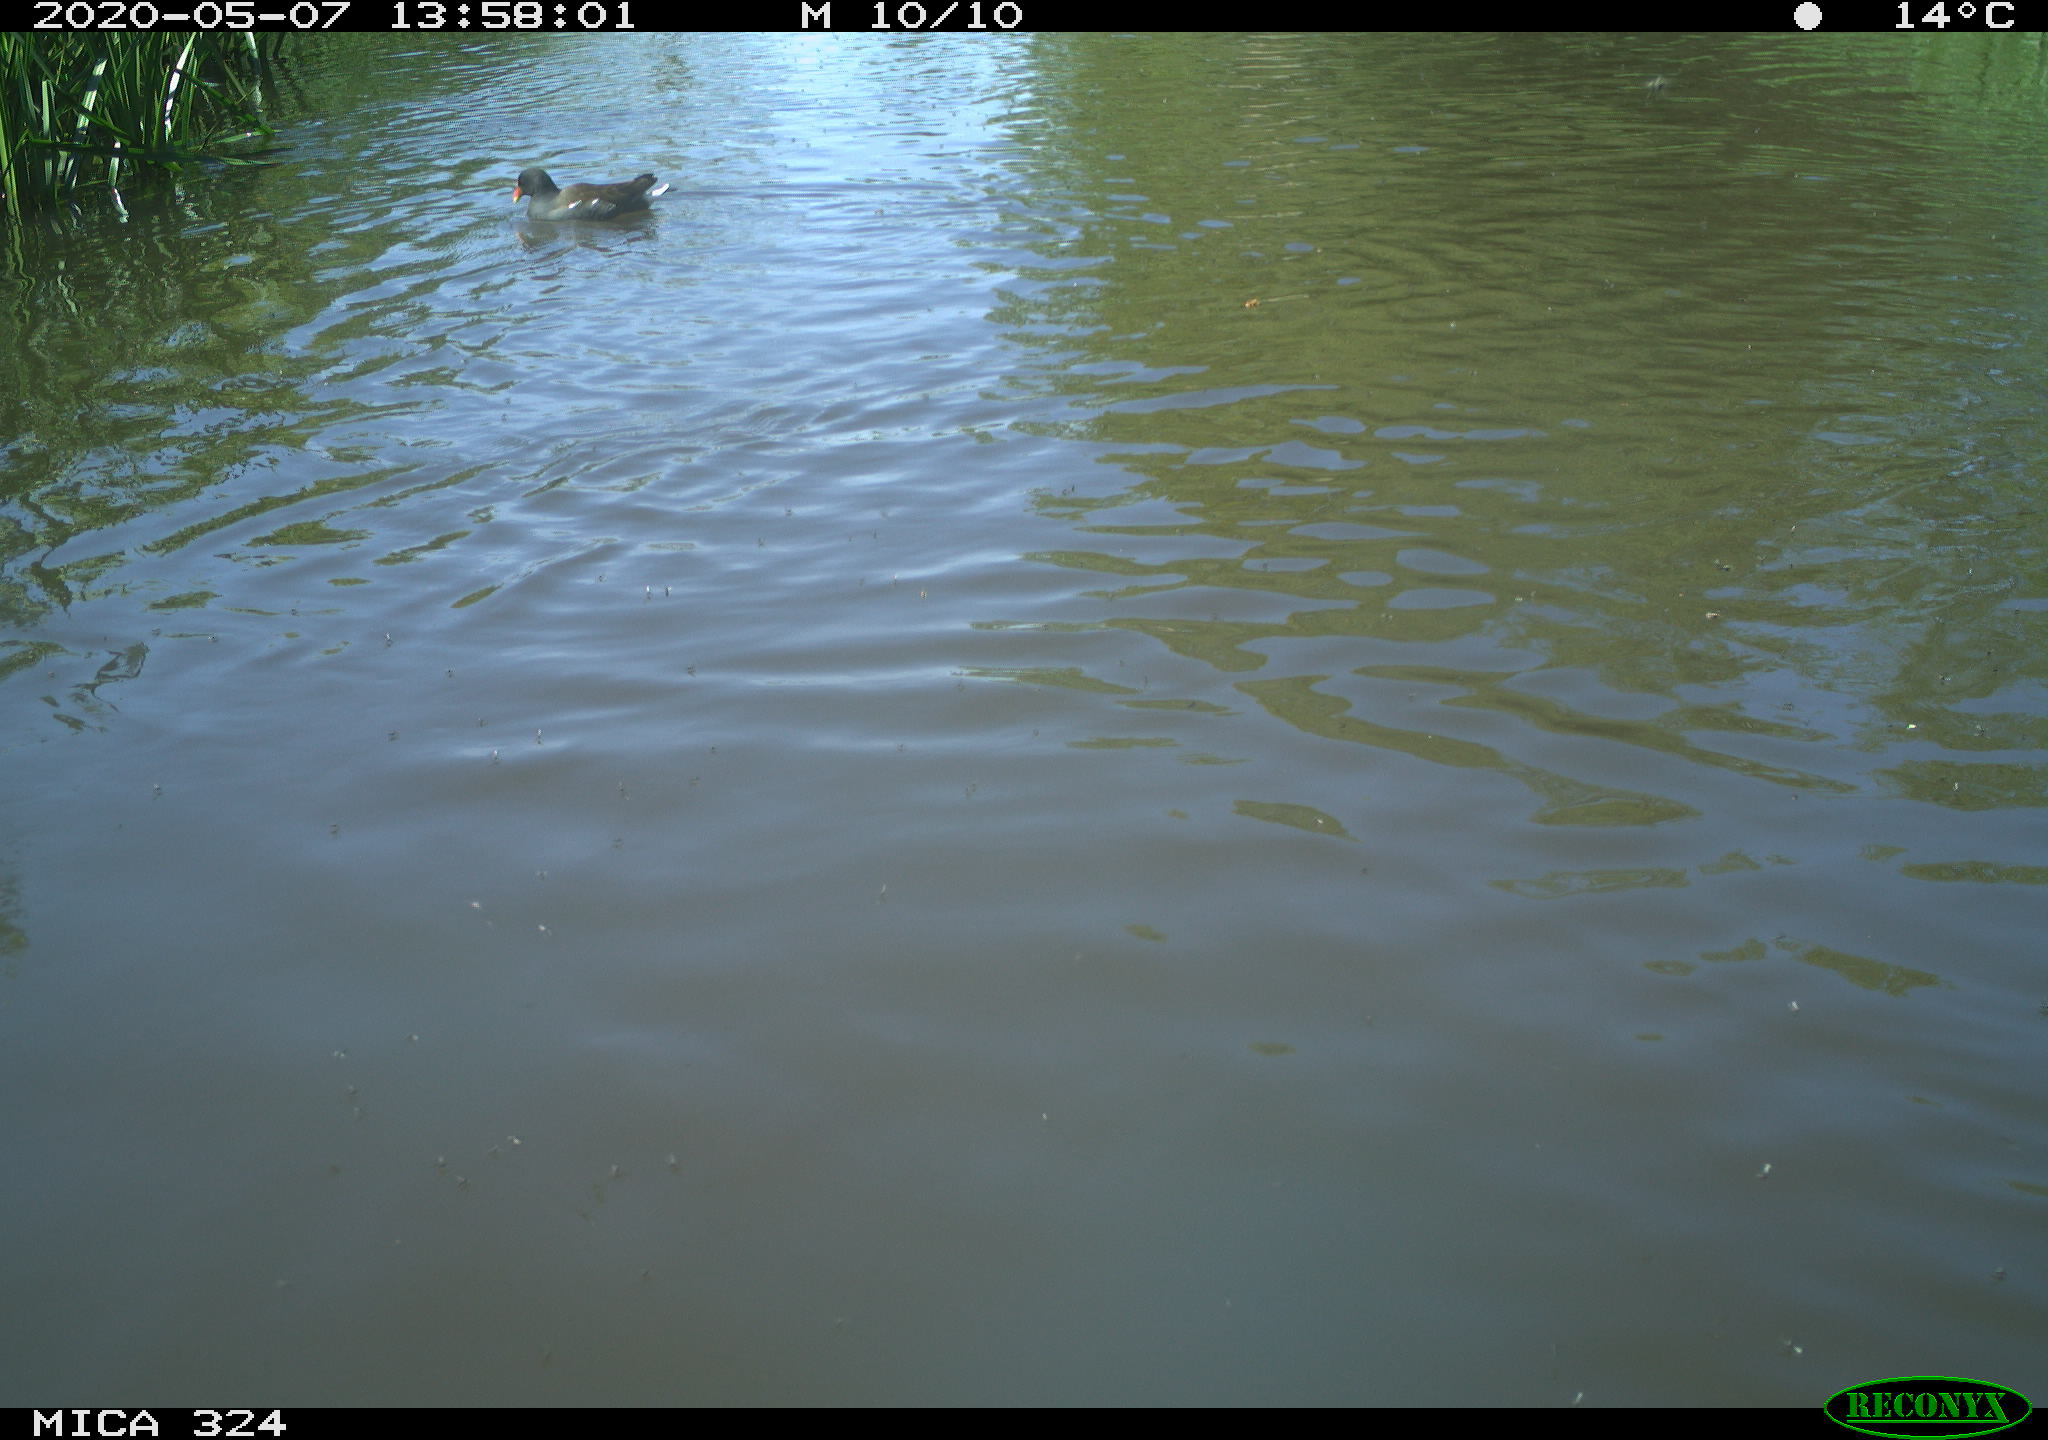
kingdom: Animalia
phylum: Chordata
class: Aves
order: Gruiformes
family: Rallidae
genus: Gallinula
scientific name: Gallinula chloropus
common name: Common moorhen
